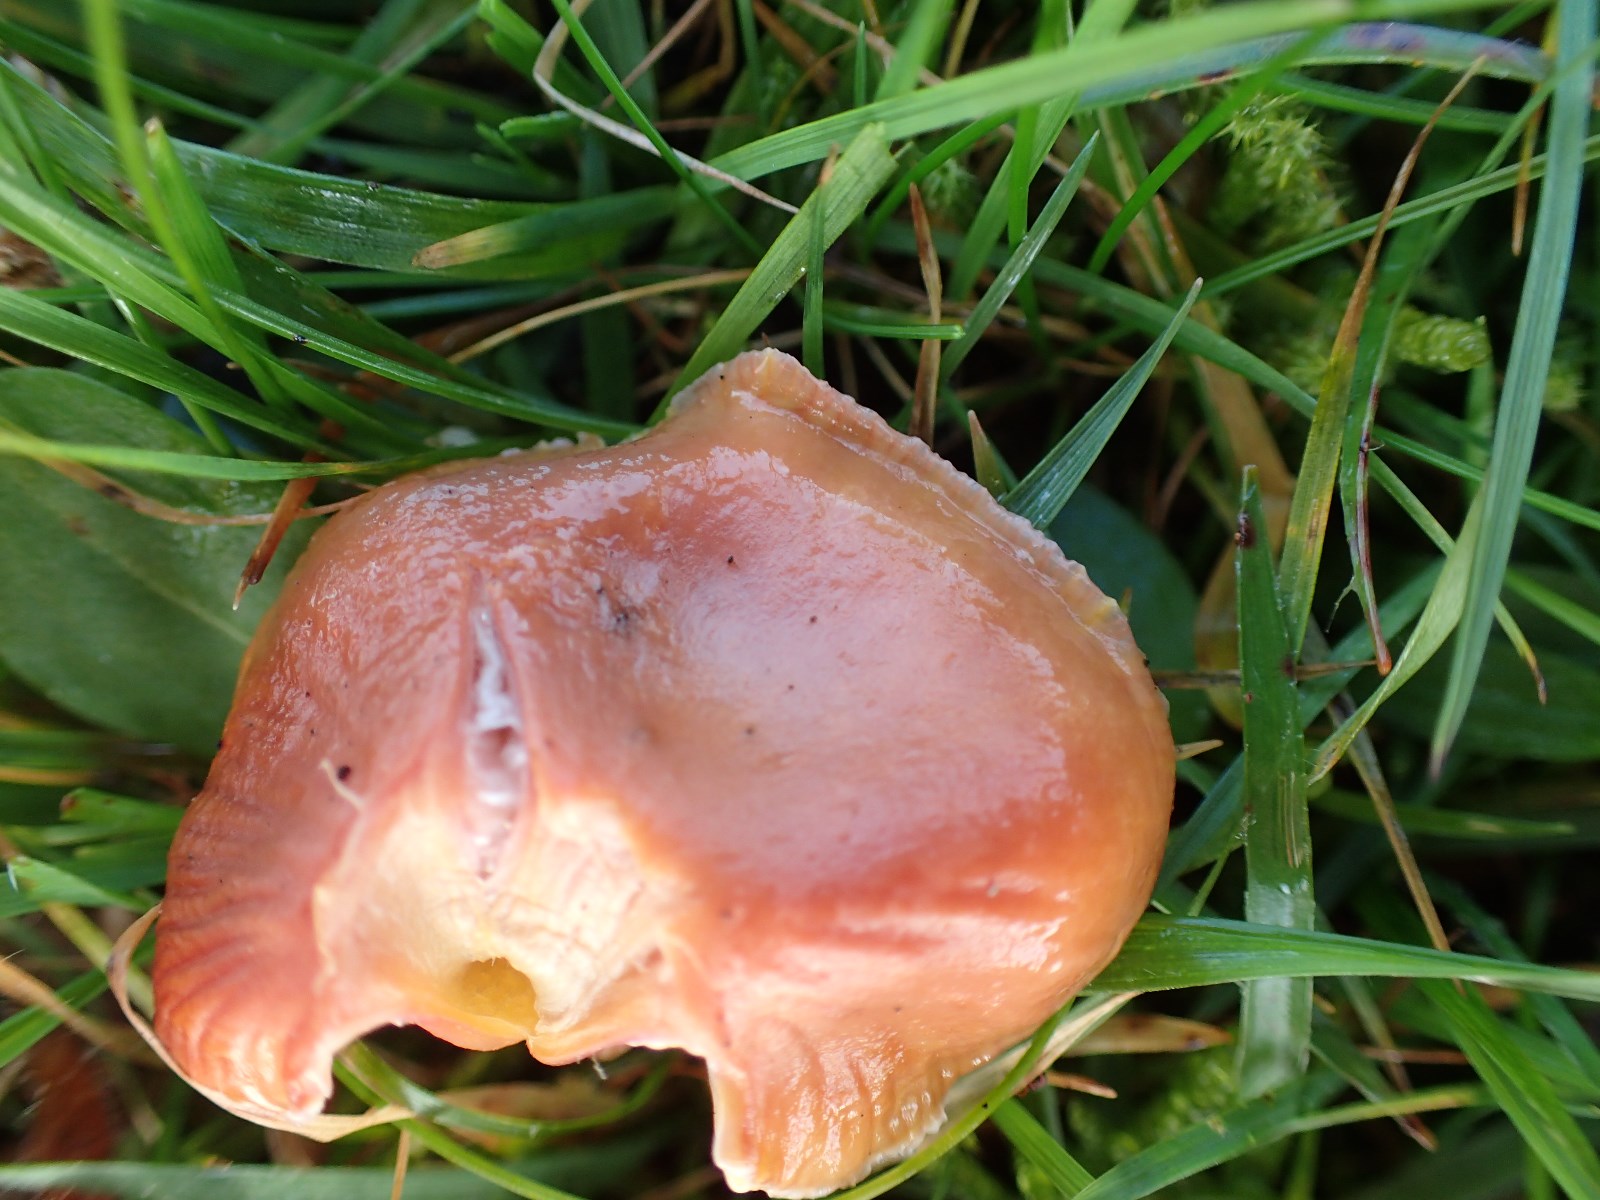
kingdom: Fungi
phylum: Basidiomycota
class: Agaricomycetes
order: Agaricales
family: Hygrophoraceae
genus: Hygrocybe
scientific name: Hygrocybe miniata
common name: mønje-vokshat
